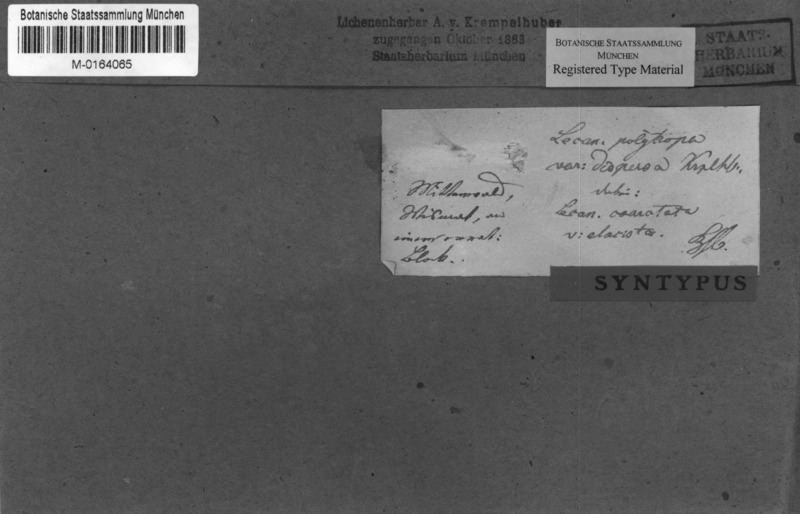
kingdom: Fungi
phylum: Ascomycota
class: Lecanoromycetes
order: Lecanorales
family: Lecanoraceae
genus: Lecanora
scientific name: Lecanora polytropa
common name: Granite-speck rim lichen
